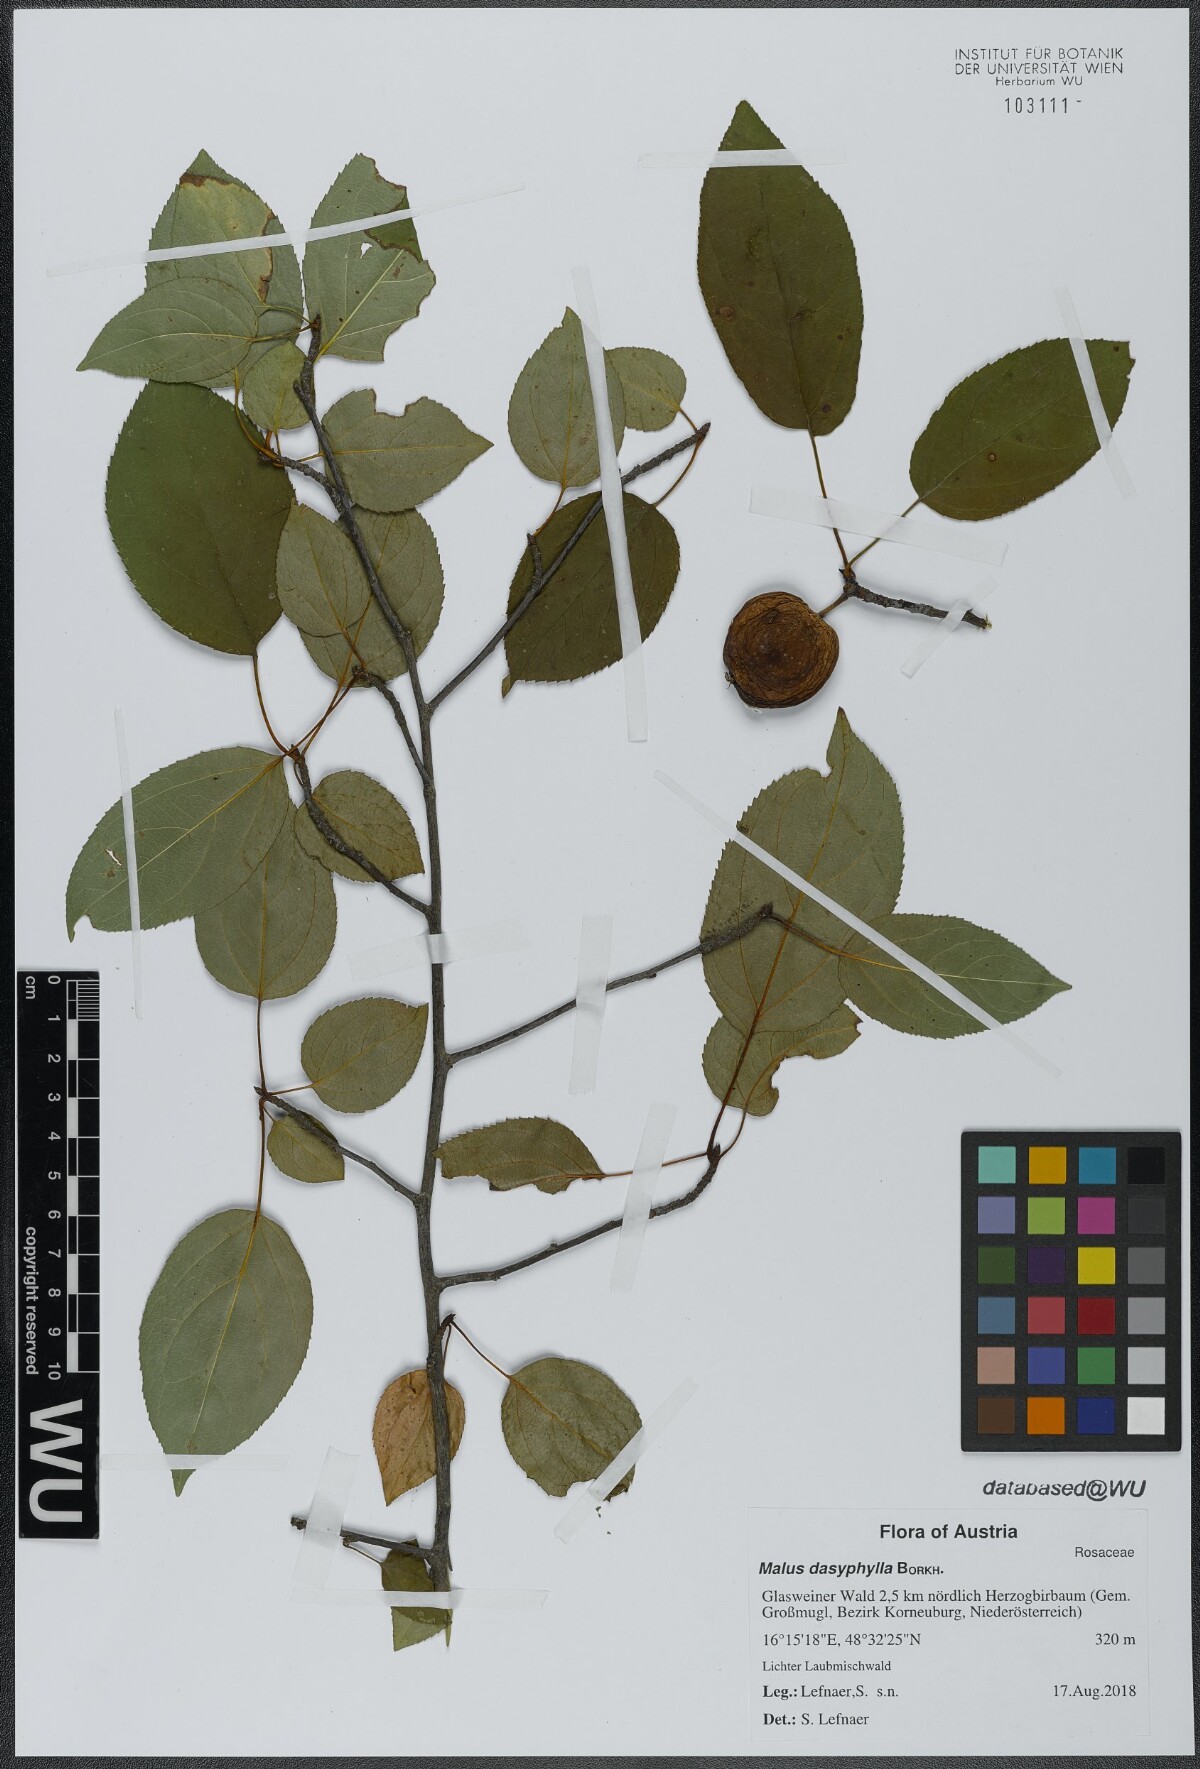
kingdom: Plantae
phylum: Tracheophyta
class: Magnoliopsida
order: Rosales
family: Rosaceae
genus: Malus
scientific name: Malus dasyphylla
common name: Paradise apple
